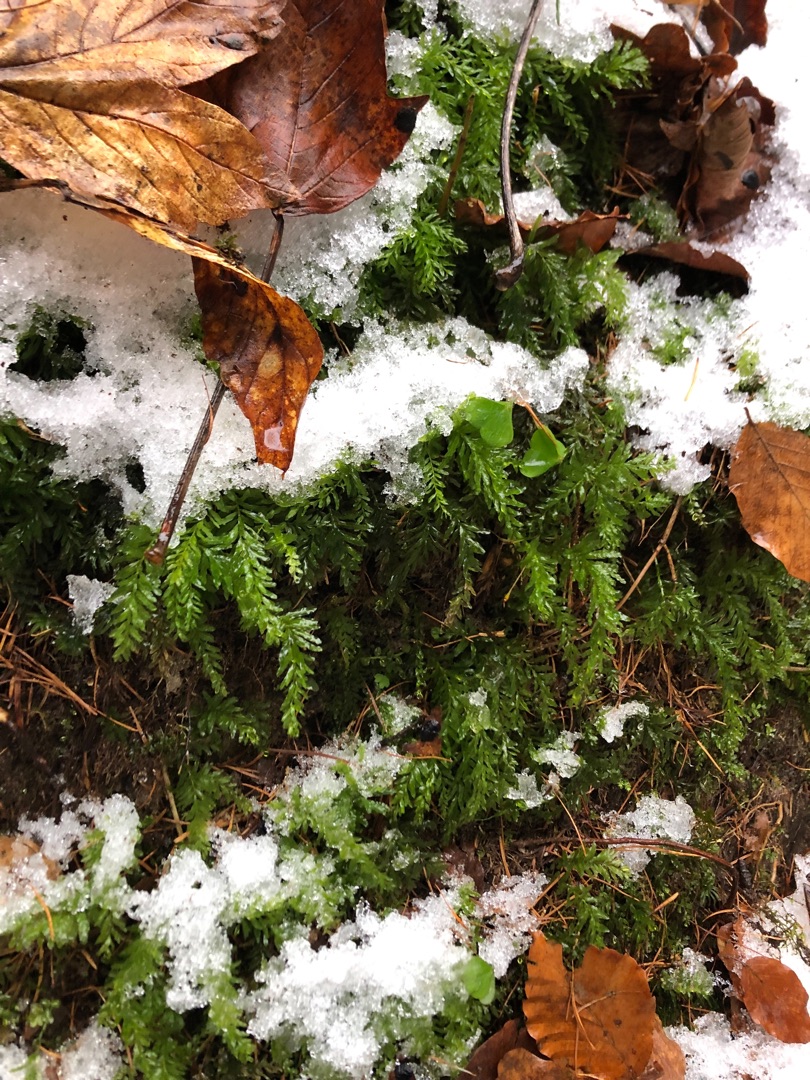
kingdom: Plantae
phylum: Bryophyta
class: Bryopsida
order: Bryales
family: Mniaceae
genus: Plagiomnium
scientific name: Plagiomnium undulatum
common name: Bølget krybstjerne
